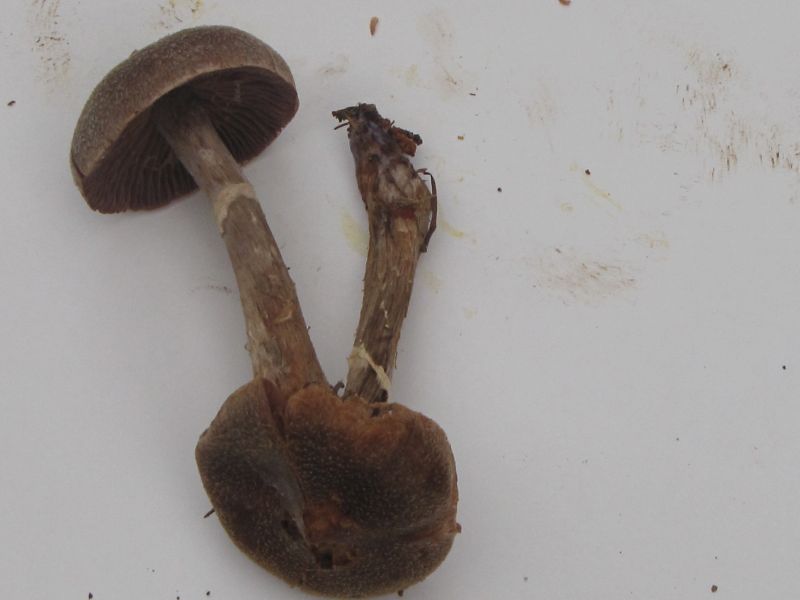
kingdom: Fungi
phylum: Basidiomycota
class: Agaricomycetes
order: Agaricales
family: Cortinariaceae
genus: Cortinarius
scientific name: Cortinarius
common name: pelargonie-slørhat
